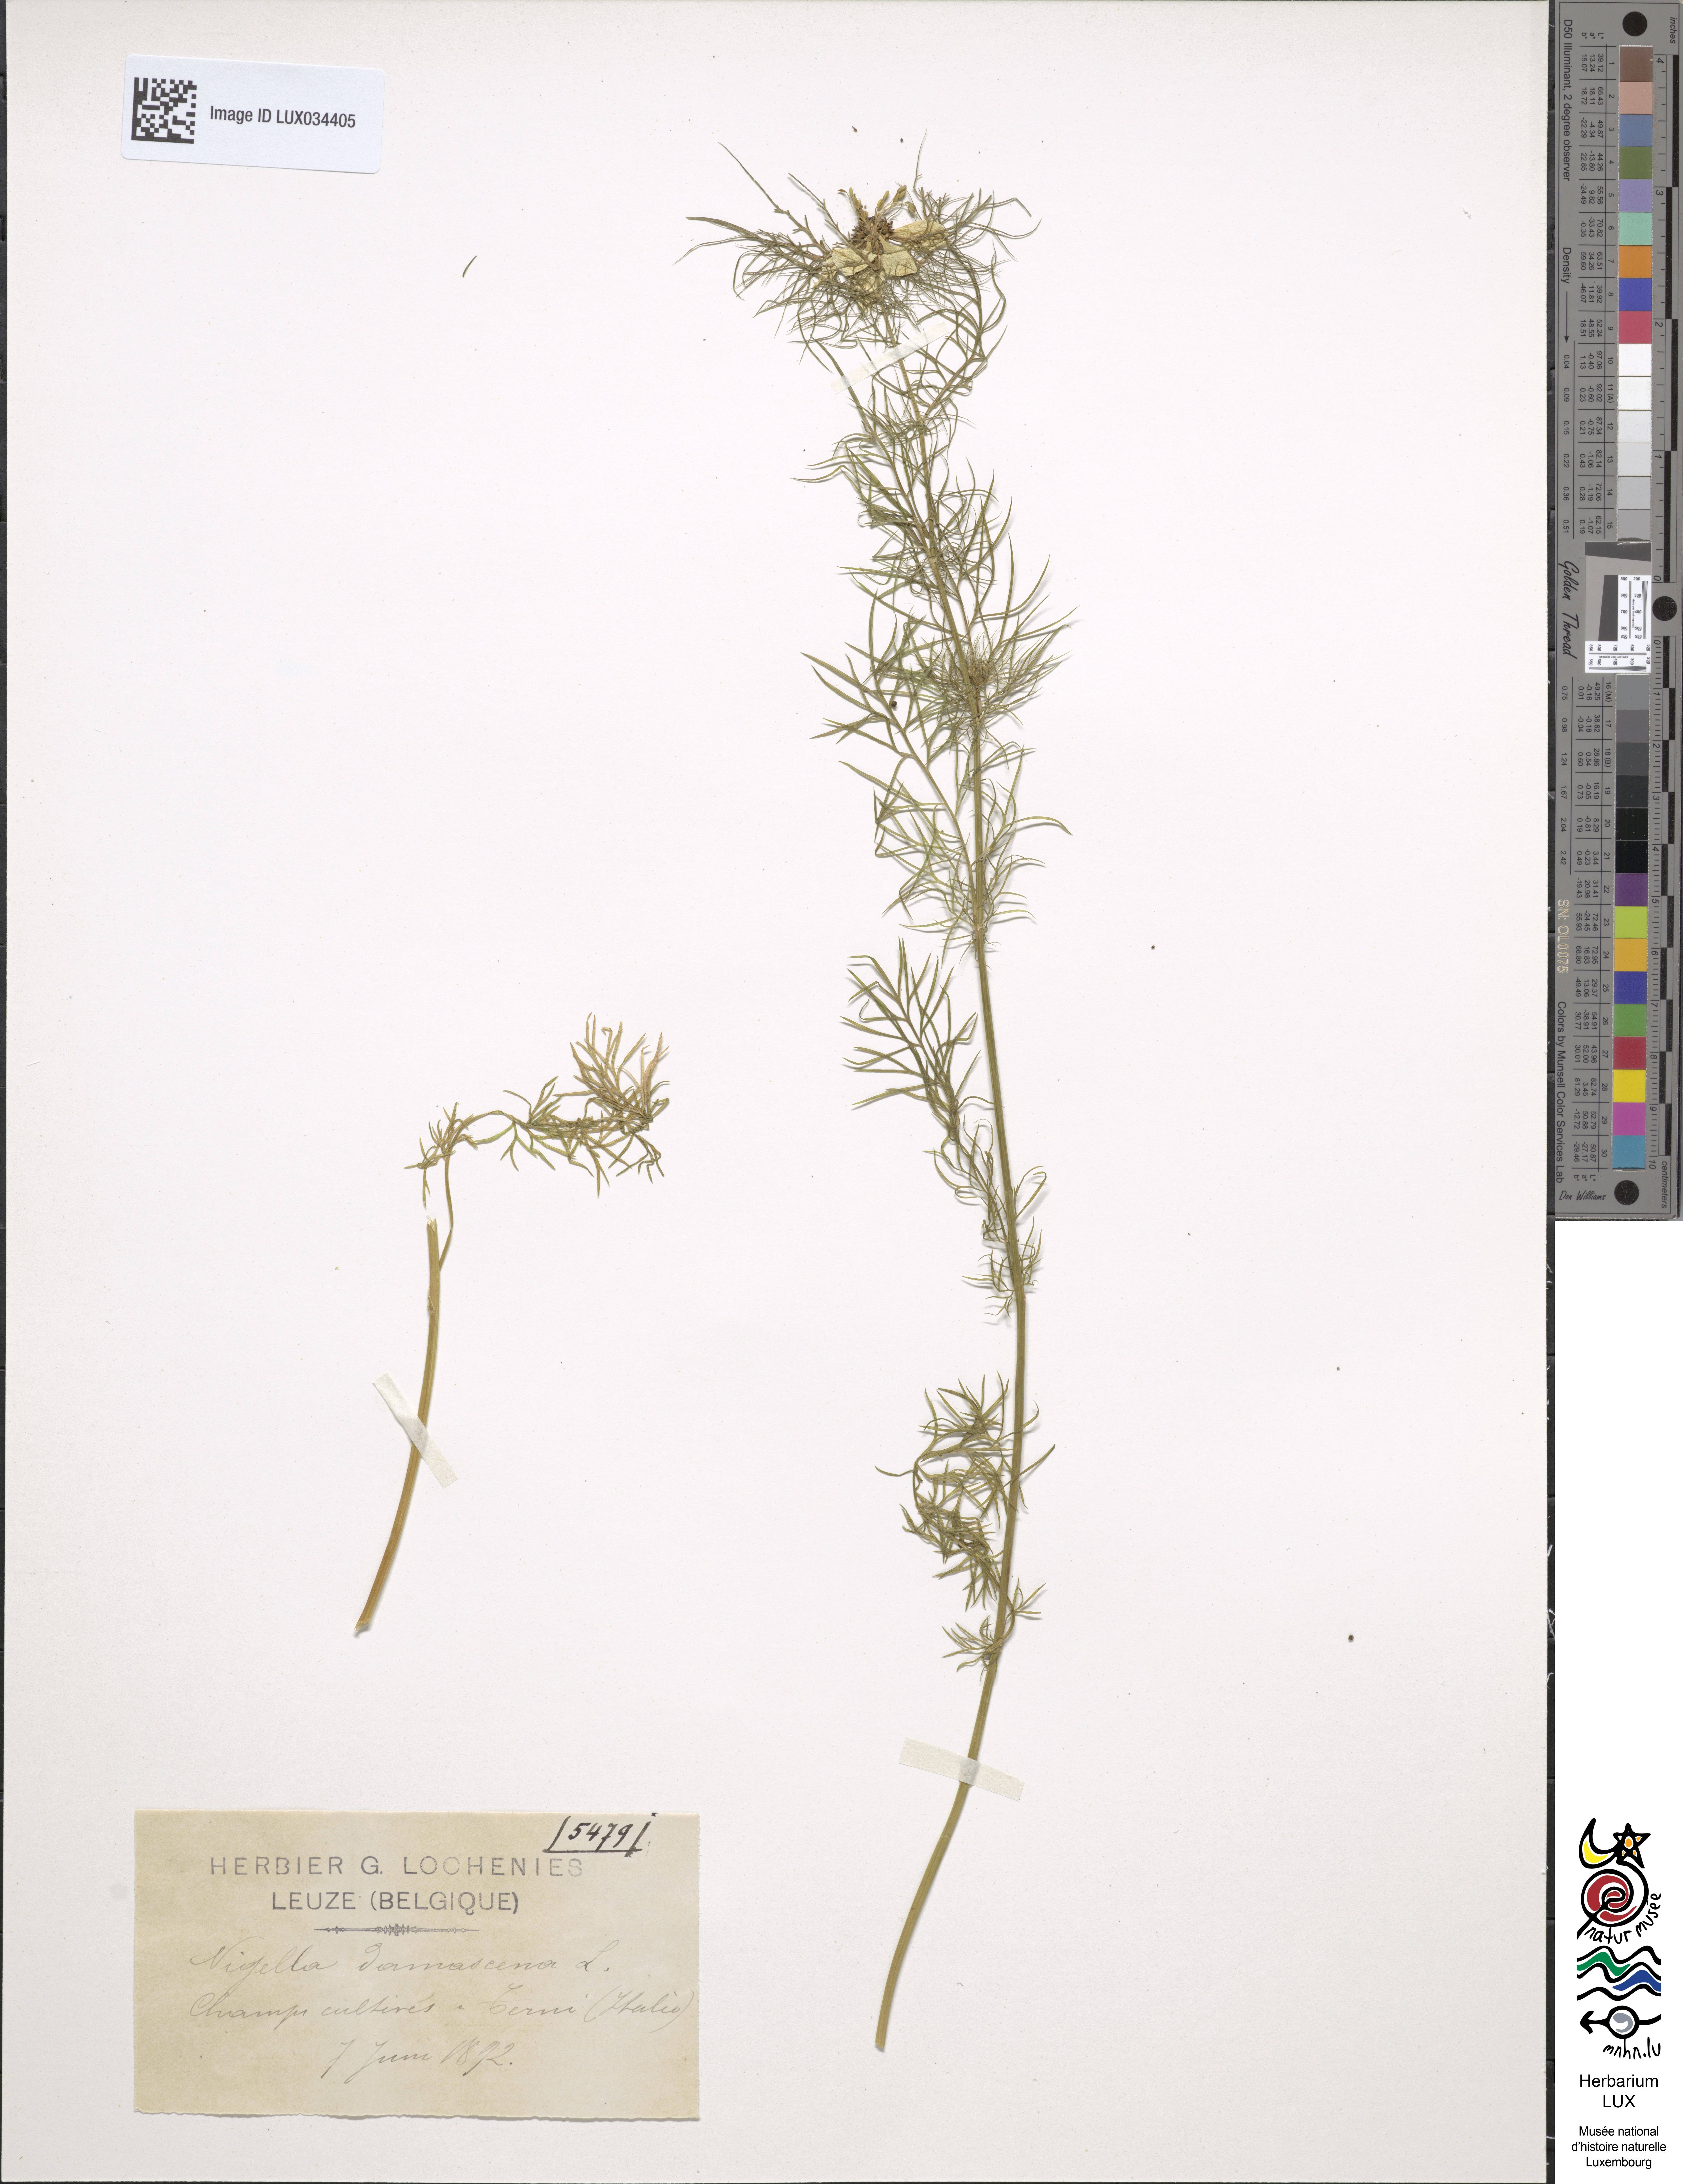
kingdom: Plantae
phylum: Tracheophyta
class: Magnoliopsida
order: Ranunculales
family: Ranunculaceae
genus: Nigella
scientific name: Nigella damascena
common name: Love-in-a-mist
